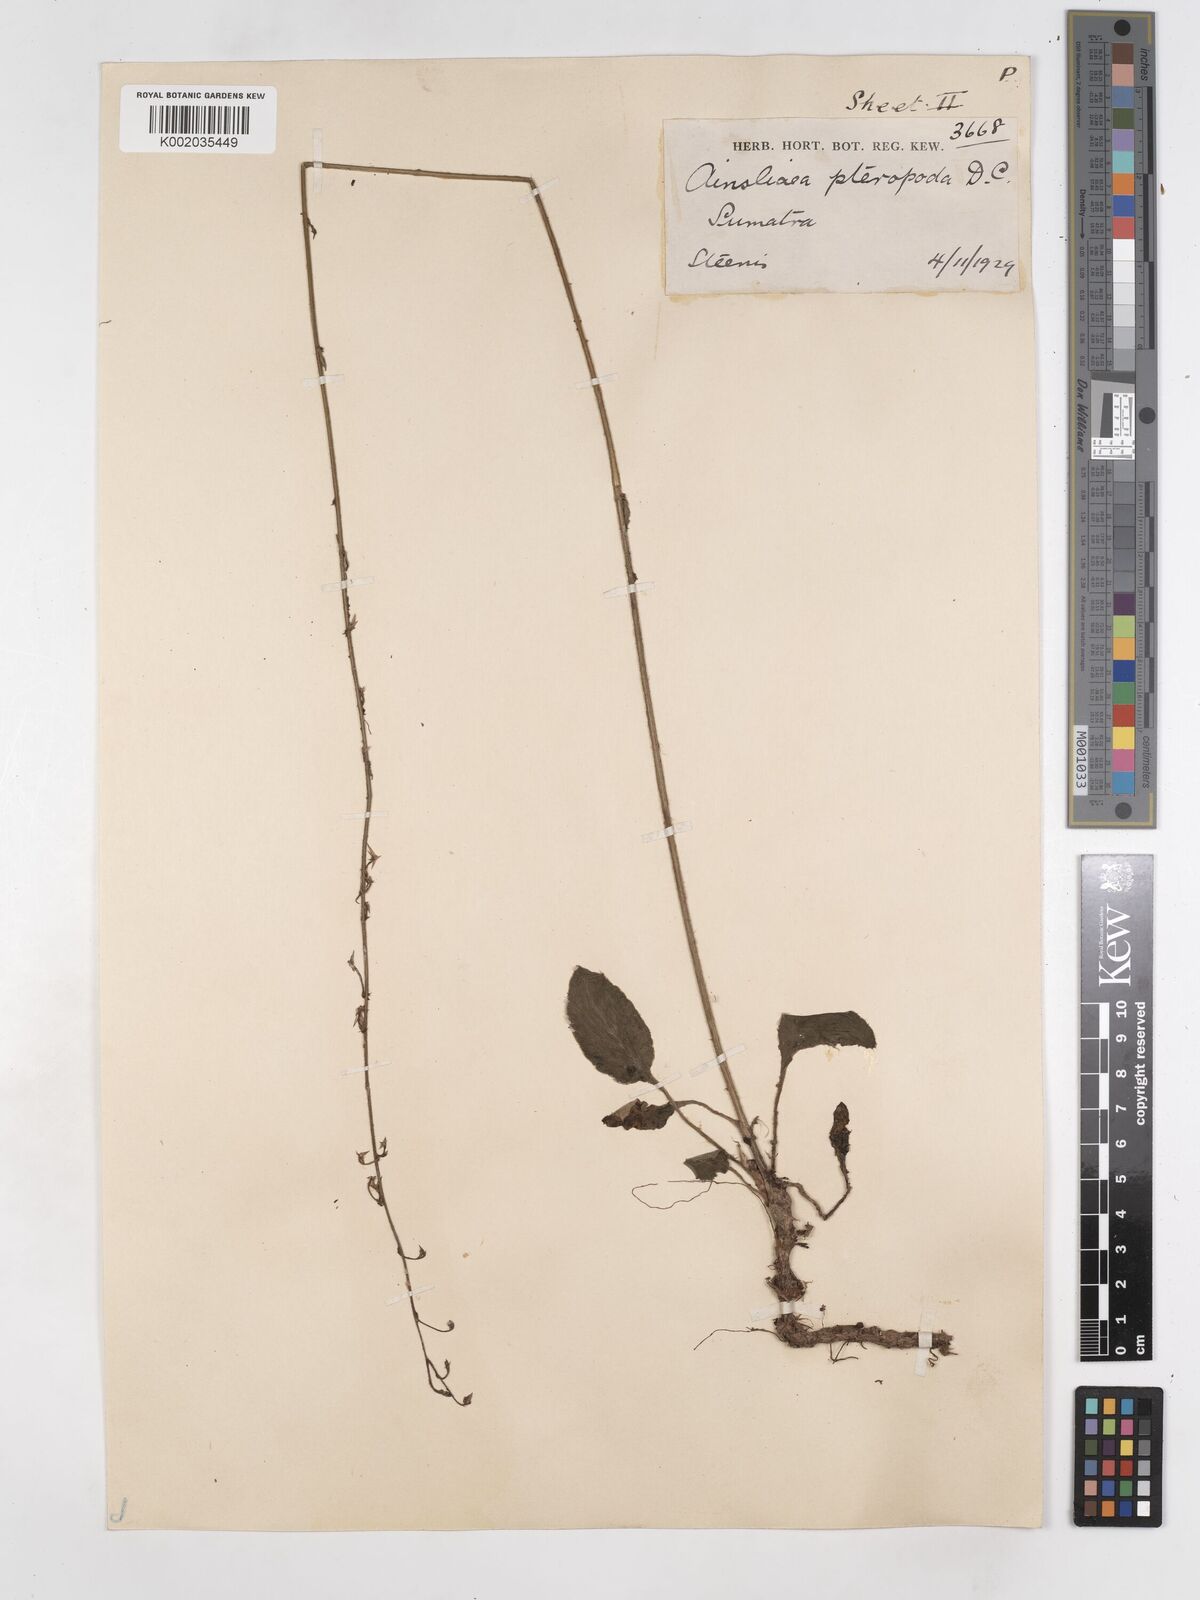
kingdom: Plantae
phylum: Tracheophyta
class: Magnoliopsida
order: Asterales
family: Asteraceae
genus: Ainsliaea
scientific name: Ainsliaea latifolia
